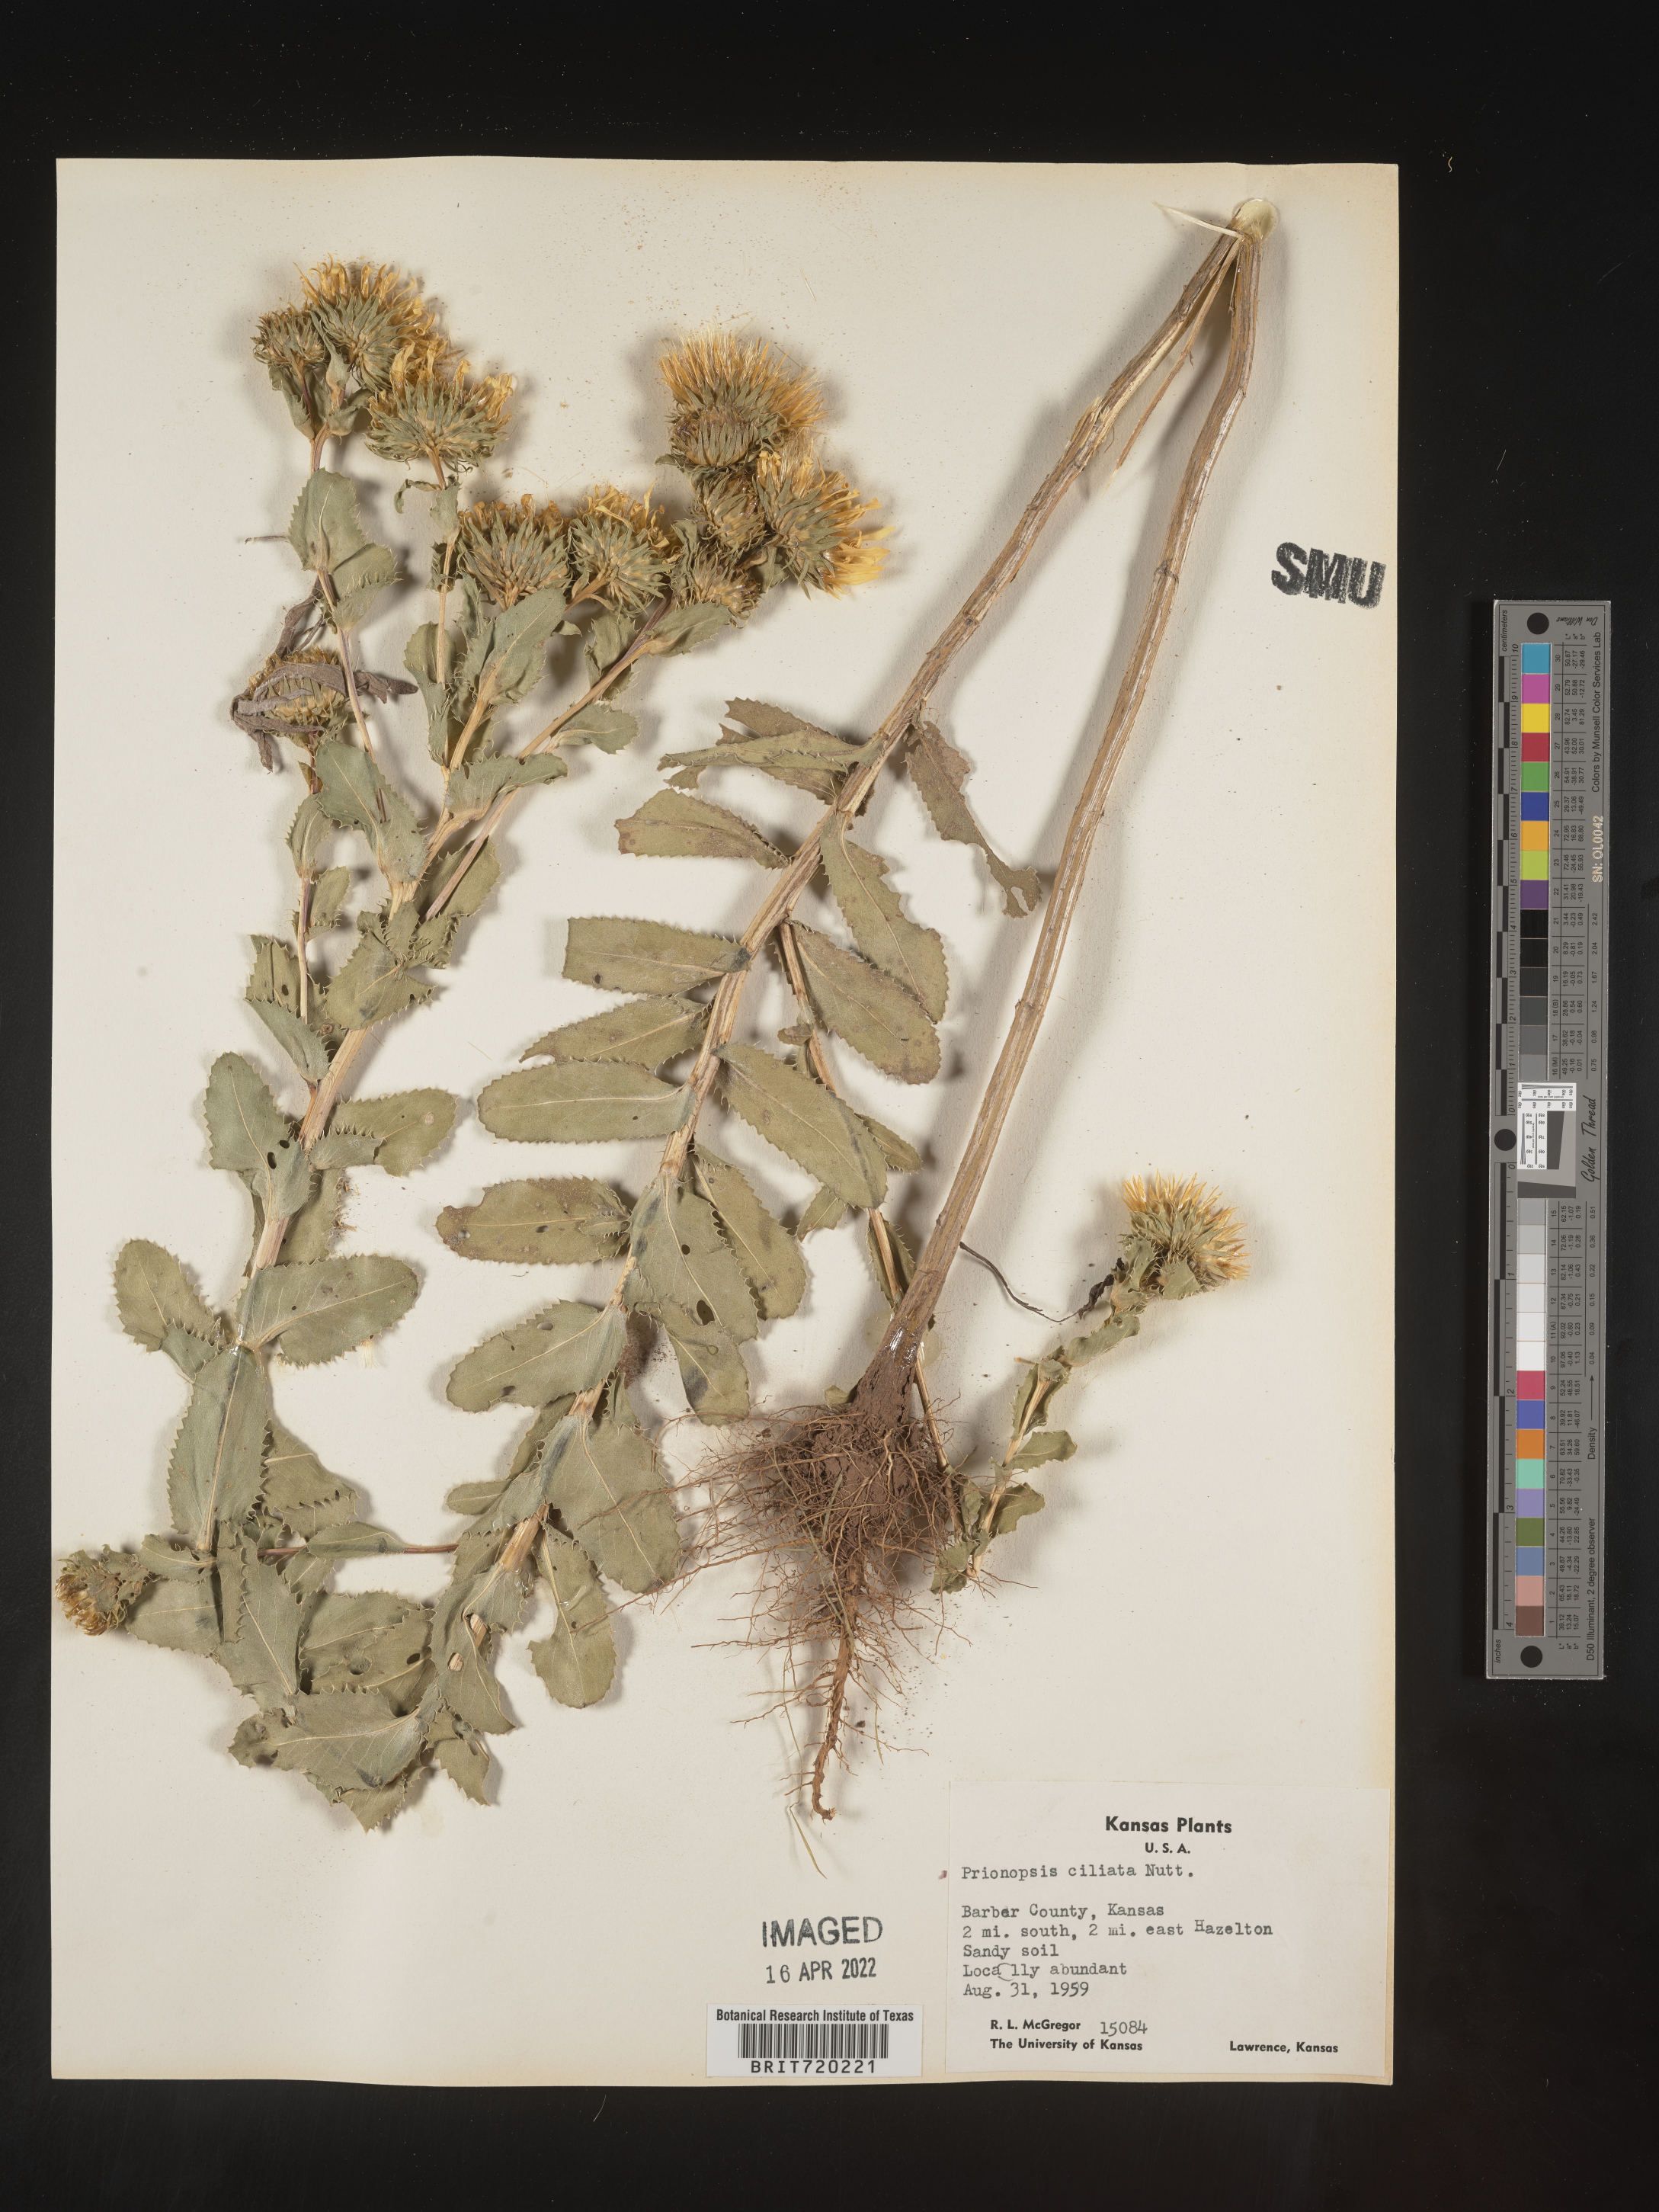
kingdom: Plantae
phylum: Tracheophyta
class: Magnoliopsida
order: Asterales
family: Asteraceae
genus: Grindelia
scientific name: Grindelia ciliata
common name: Goldenweed
